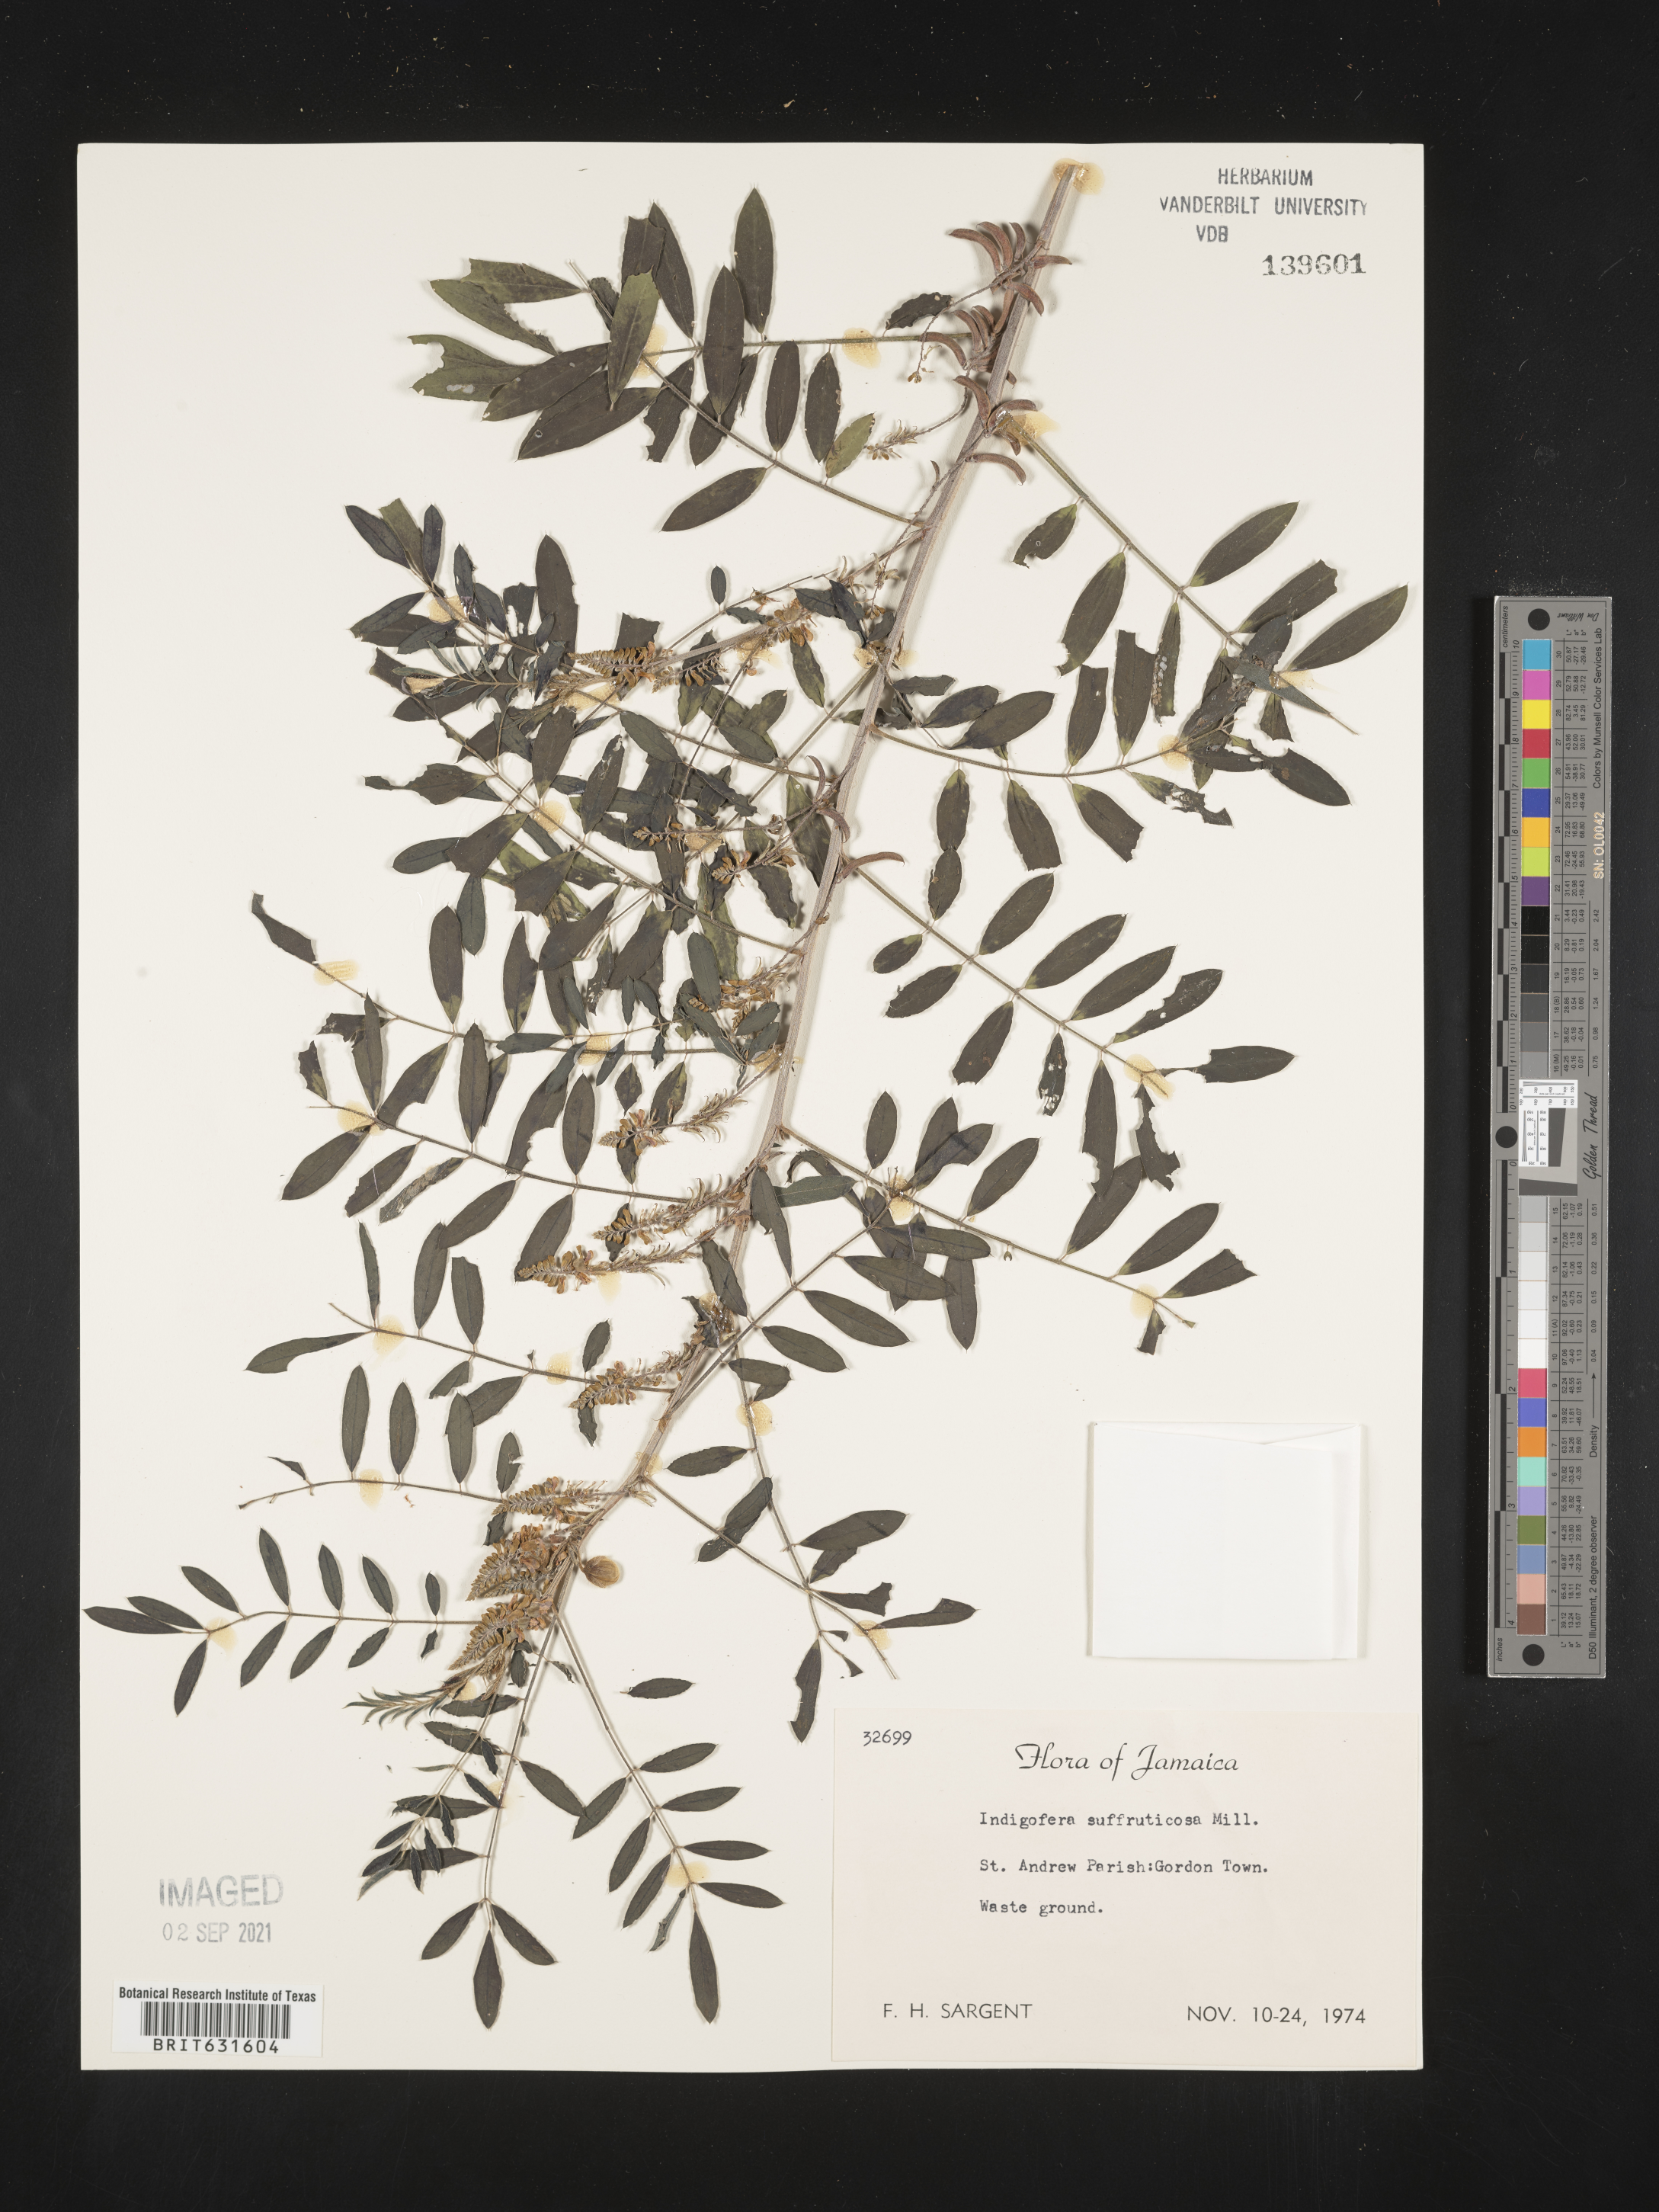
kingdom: Plantae
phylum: Tracheophyta
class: Magnoliopsida
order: Fabales
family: Fabaceae
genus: Indigofera
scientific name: Indigofera
